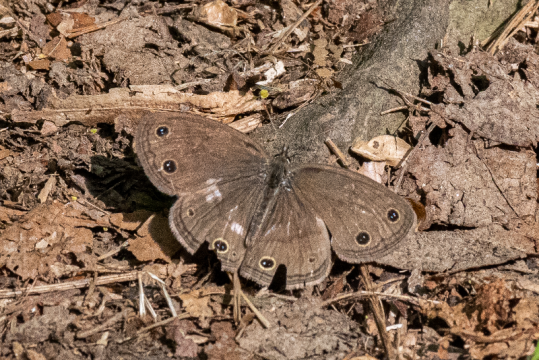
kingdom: Animalia
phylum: Arthropoda
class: Insecta
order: Lepidoptera
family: Nymphalidae
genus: Euptychia
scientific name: Euptychia cymela
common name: Little Wood Satyr
